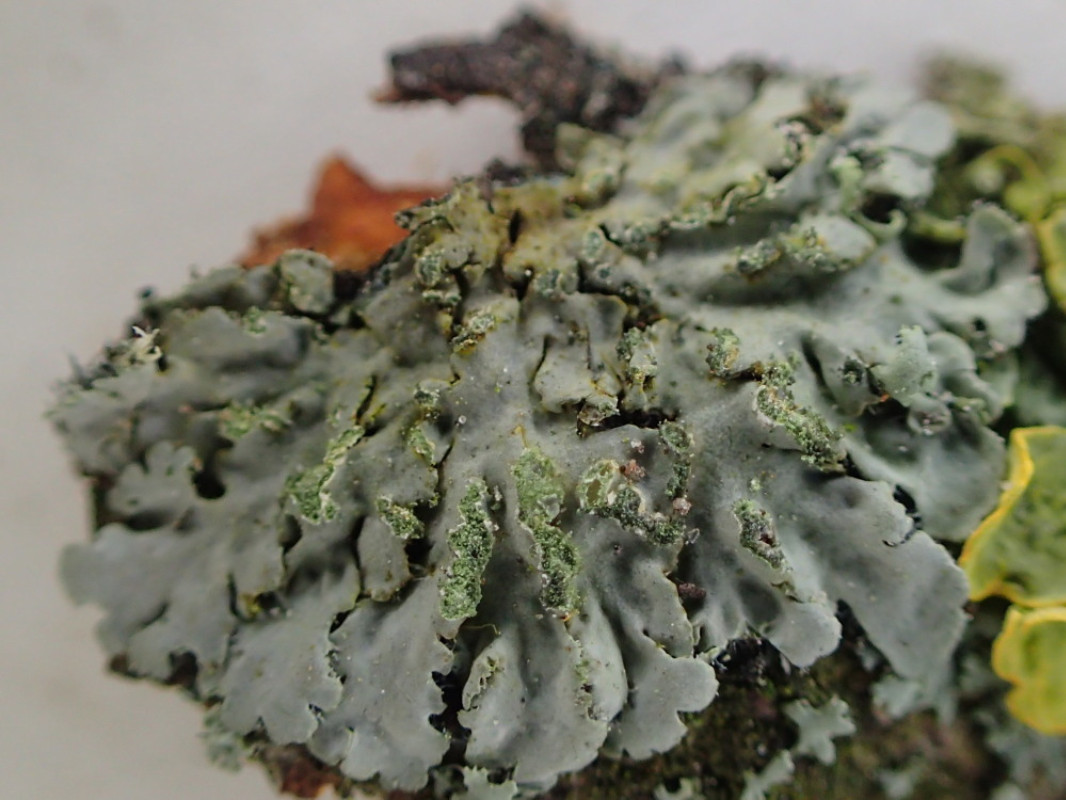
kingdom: Fungi
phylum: Ascomycota
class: Lecanoromycetes
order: Caliciales
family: Physciaceae
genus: Phaeophyscia
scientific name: Phaeophyscia orbicularis
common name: grågrøn rosetlav
